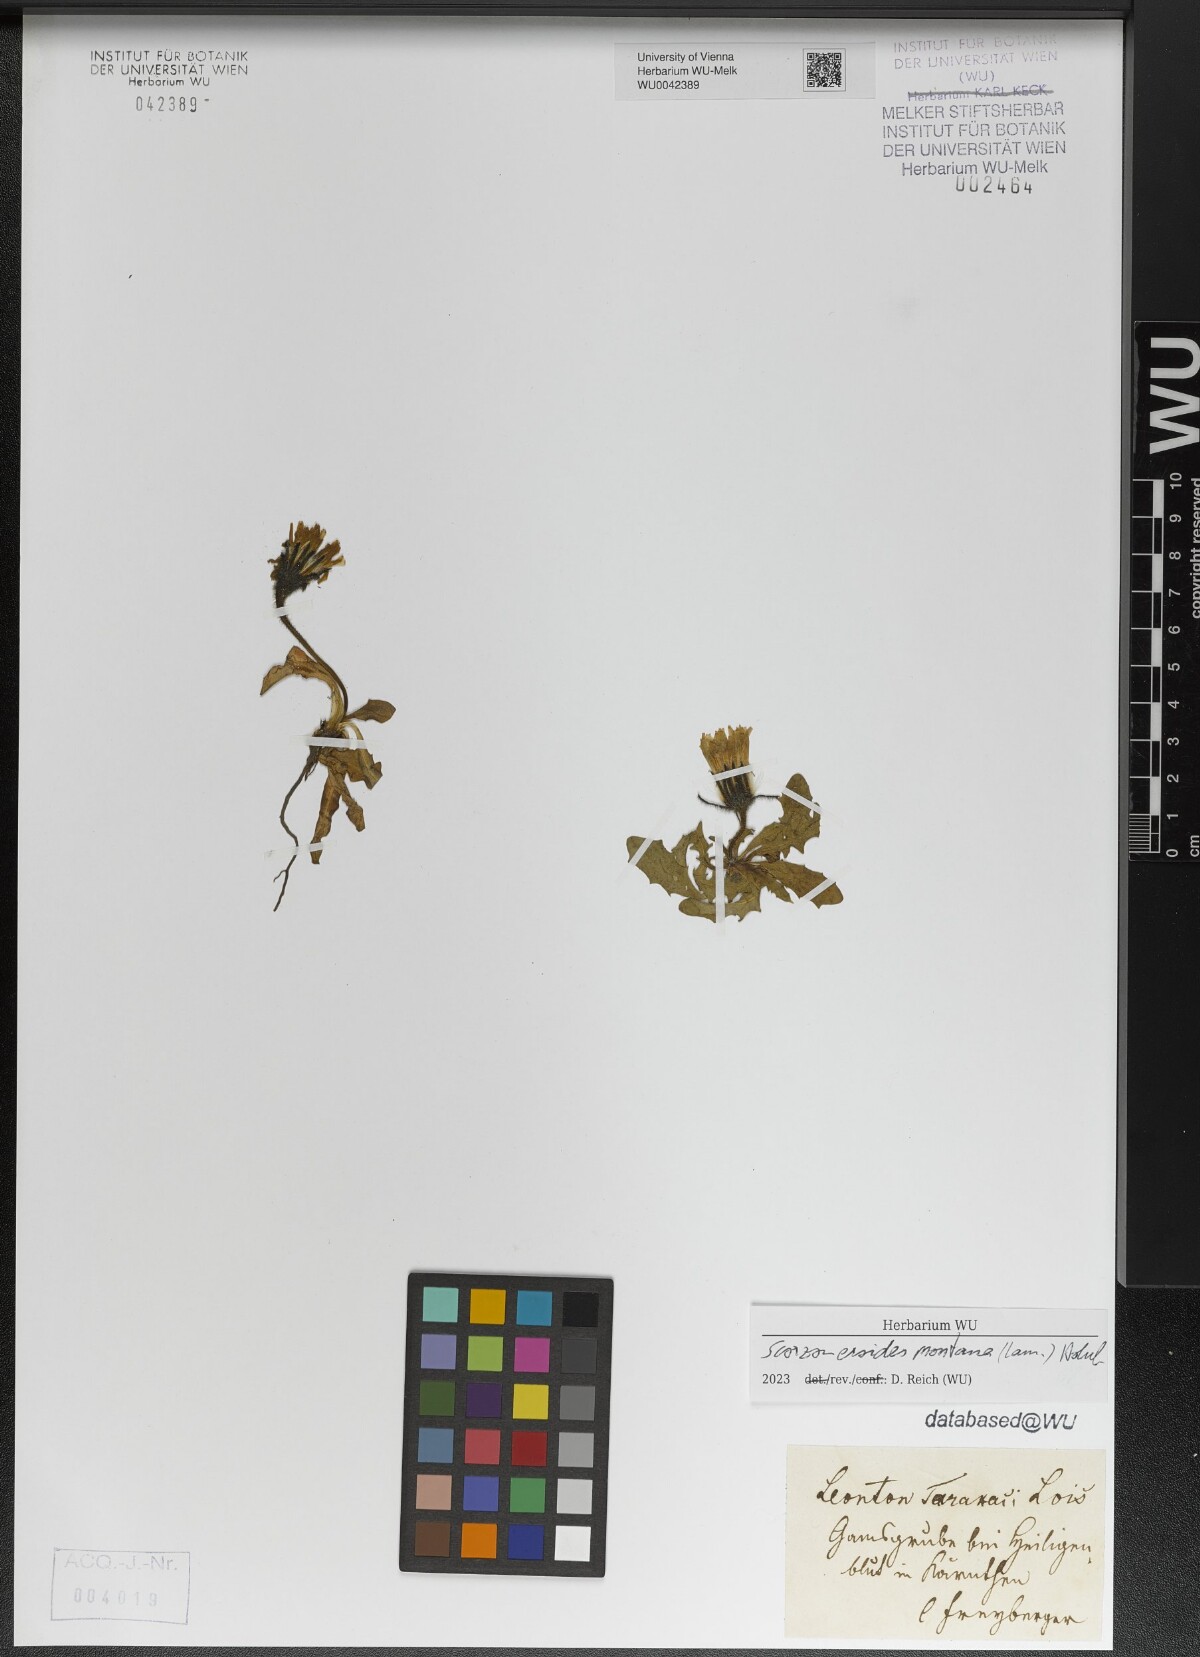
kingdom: Plantae
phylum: Tracheophyta
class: Magnoliopsida
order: Asterales
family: Asteraceae
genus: Scorzoneroides
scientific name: Scorzoneroides montana
